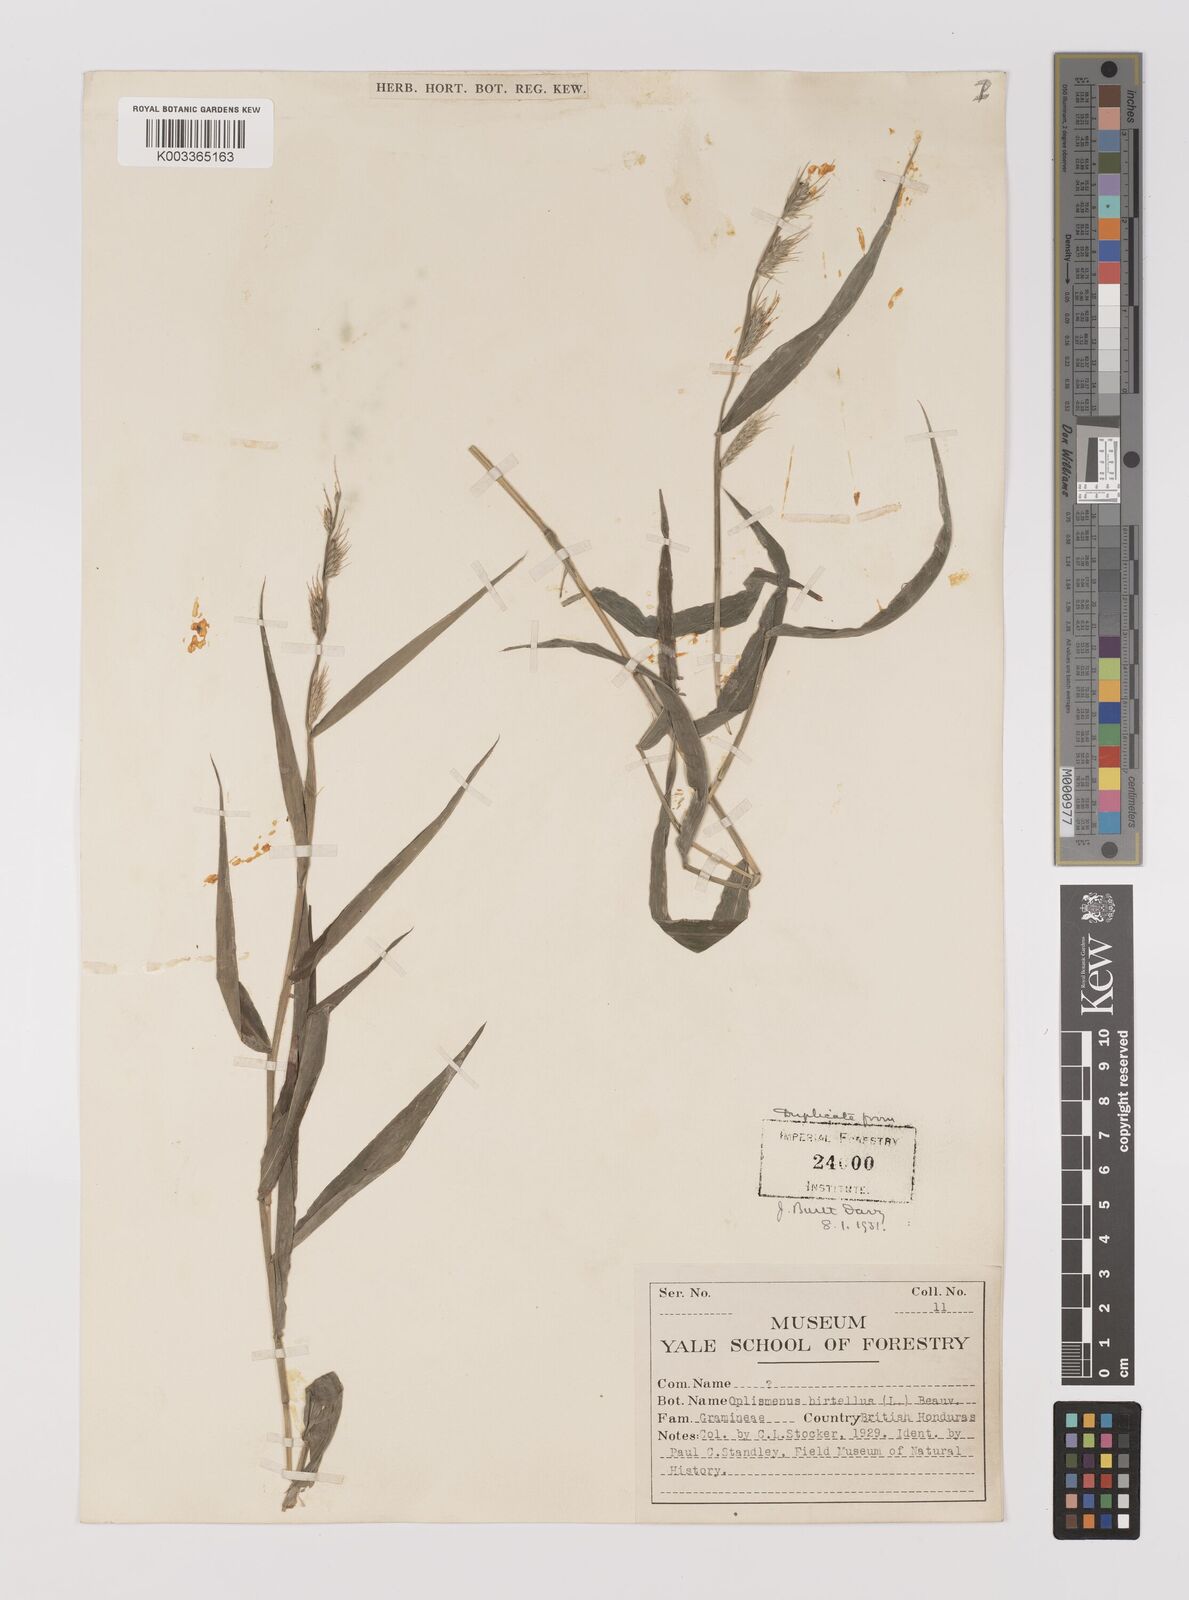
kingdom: Plantae
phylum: Tracheophyta
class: Liliopsida
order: Poales
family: Poaceae
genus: Oplismenus
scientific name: Oplismenus hirtellus
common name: Basketgrass
